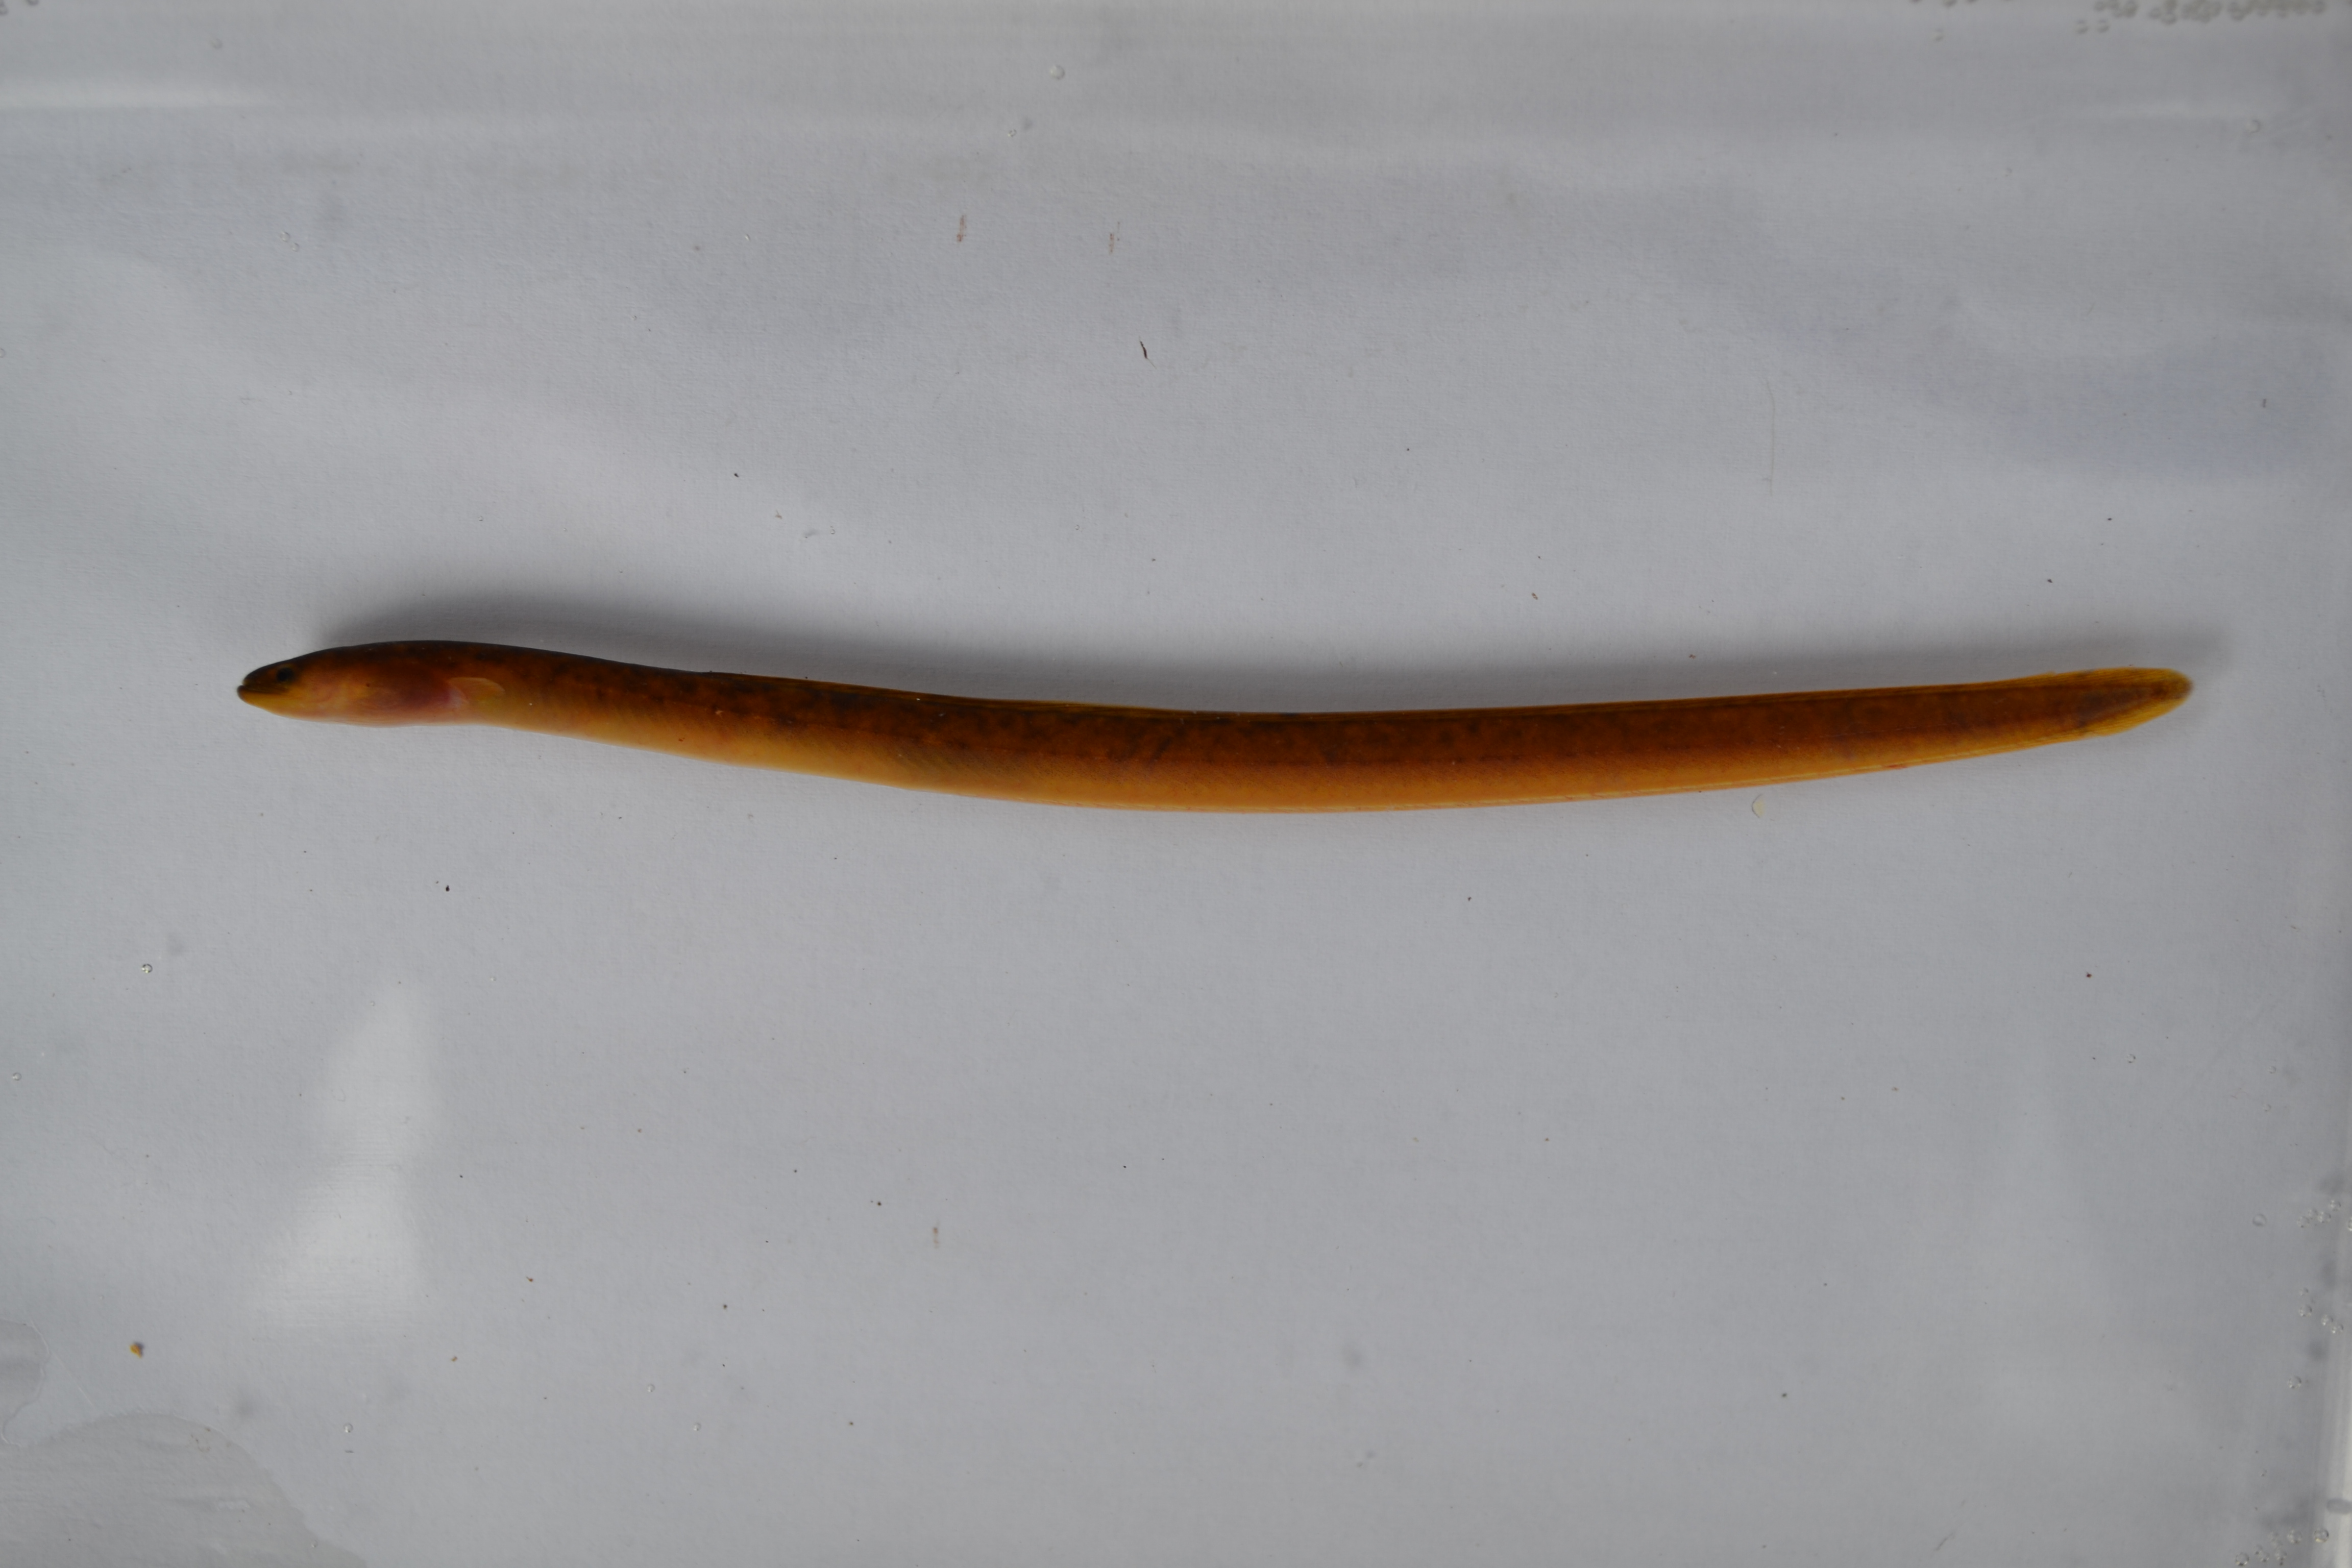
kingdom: Animalia
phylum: Chordata
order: Anguilliformes
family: Anguillidae
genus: Anguilla
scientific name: Anguilla bengalensis
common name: Indian mottled eel
